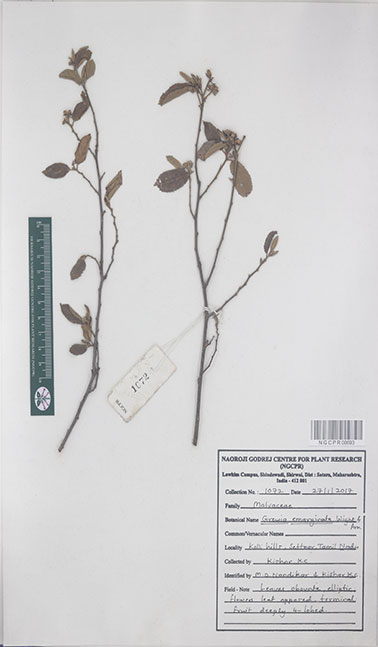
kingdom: Plantae
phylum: Tracheophyta
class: Magnoliopsida
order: Malvales
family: Malvaceae
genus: Grewia
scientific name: Grewia oppositifolia
